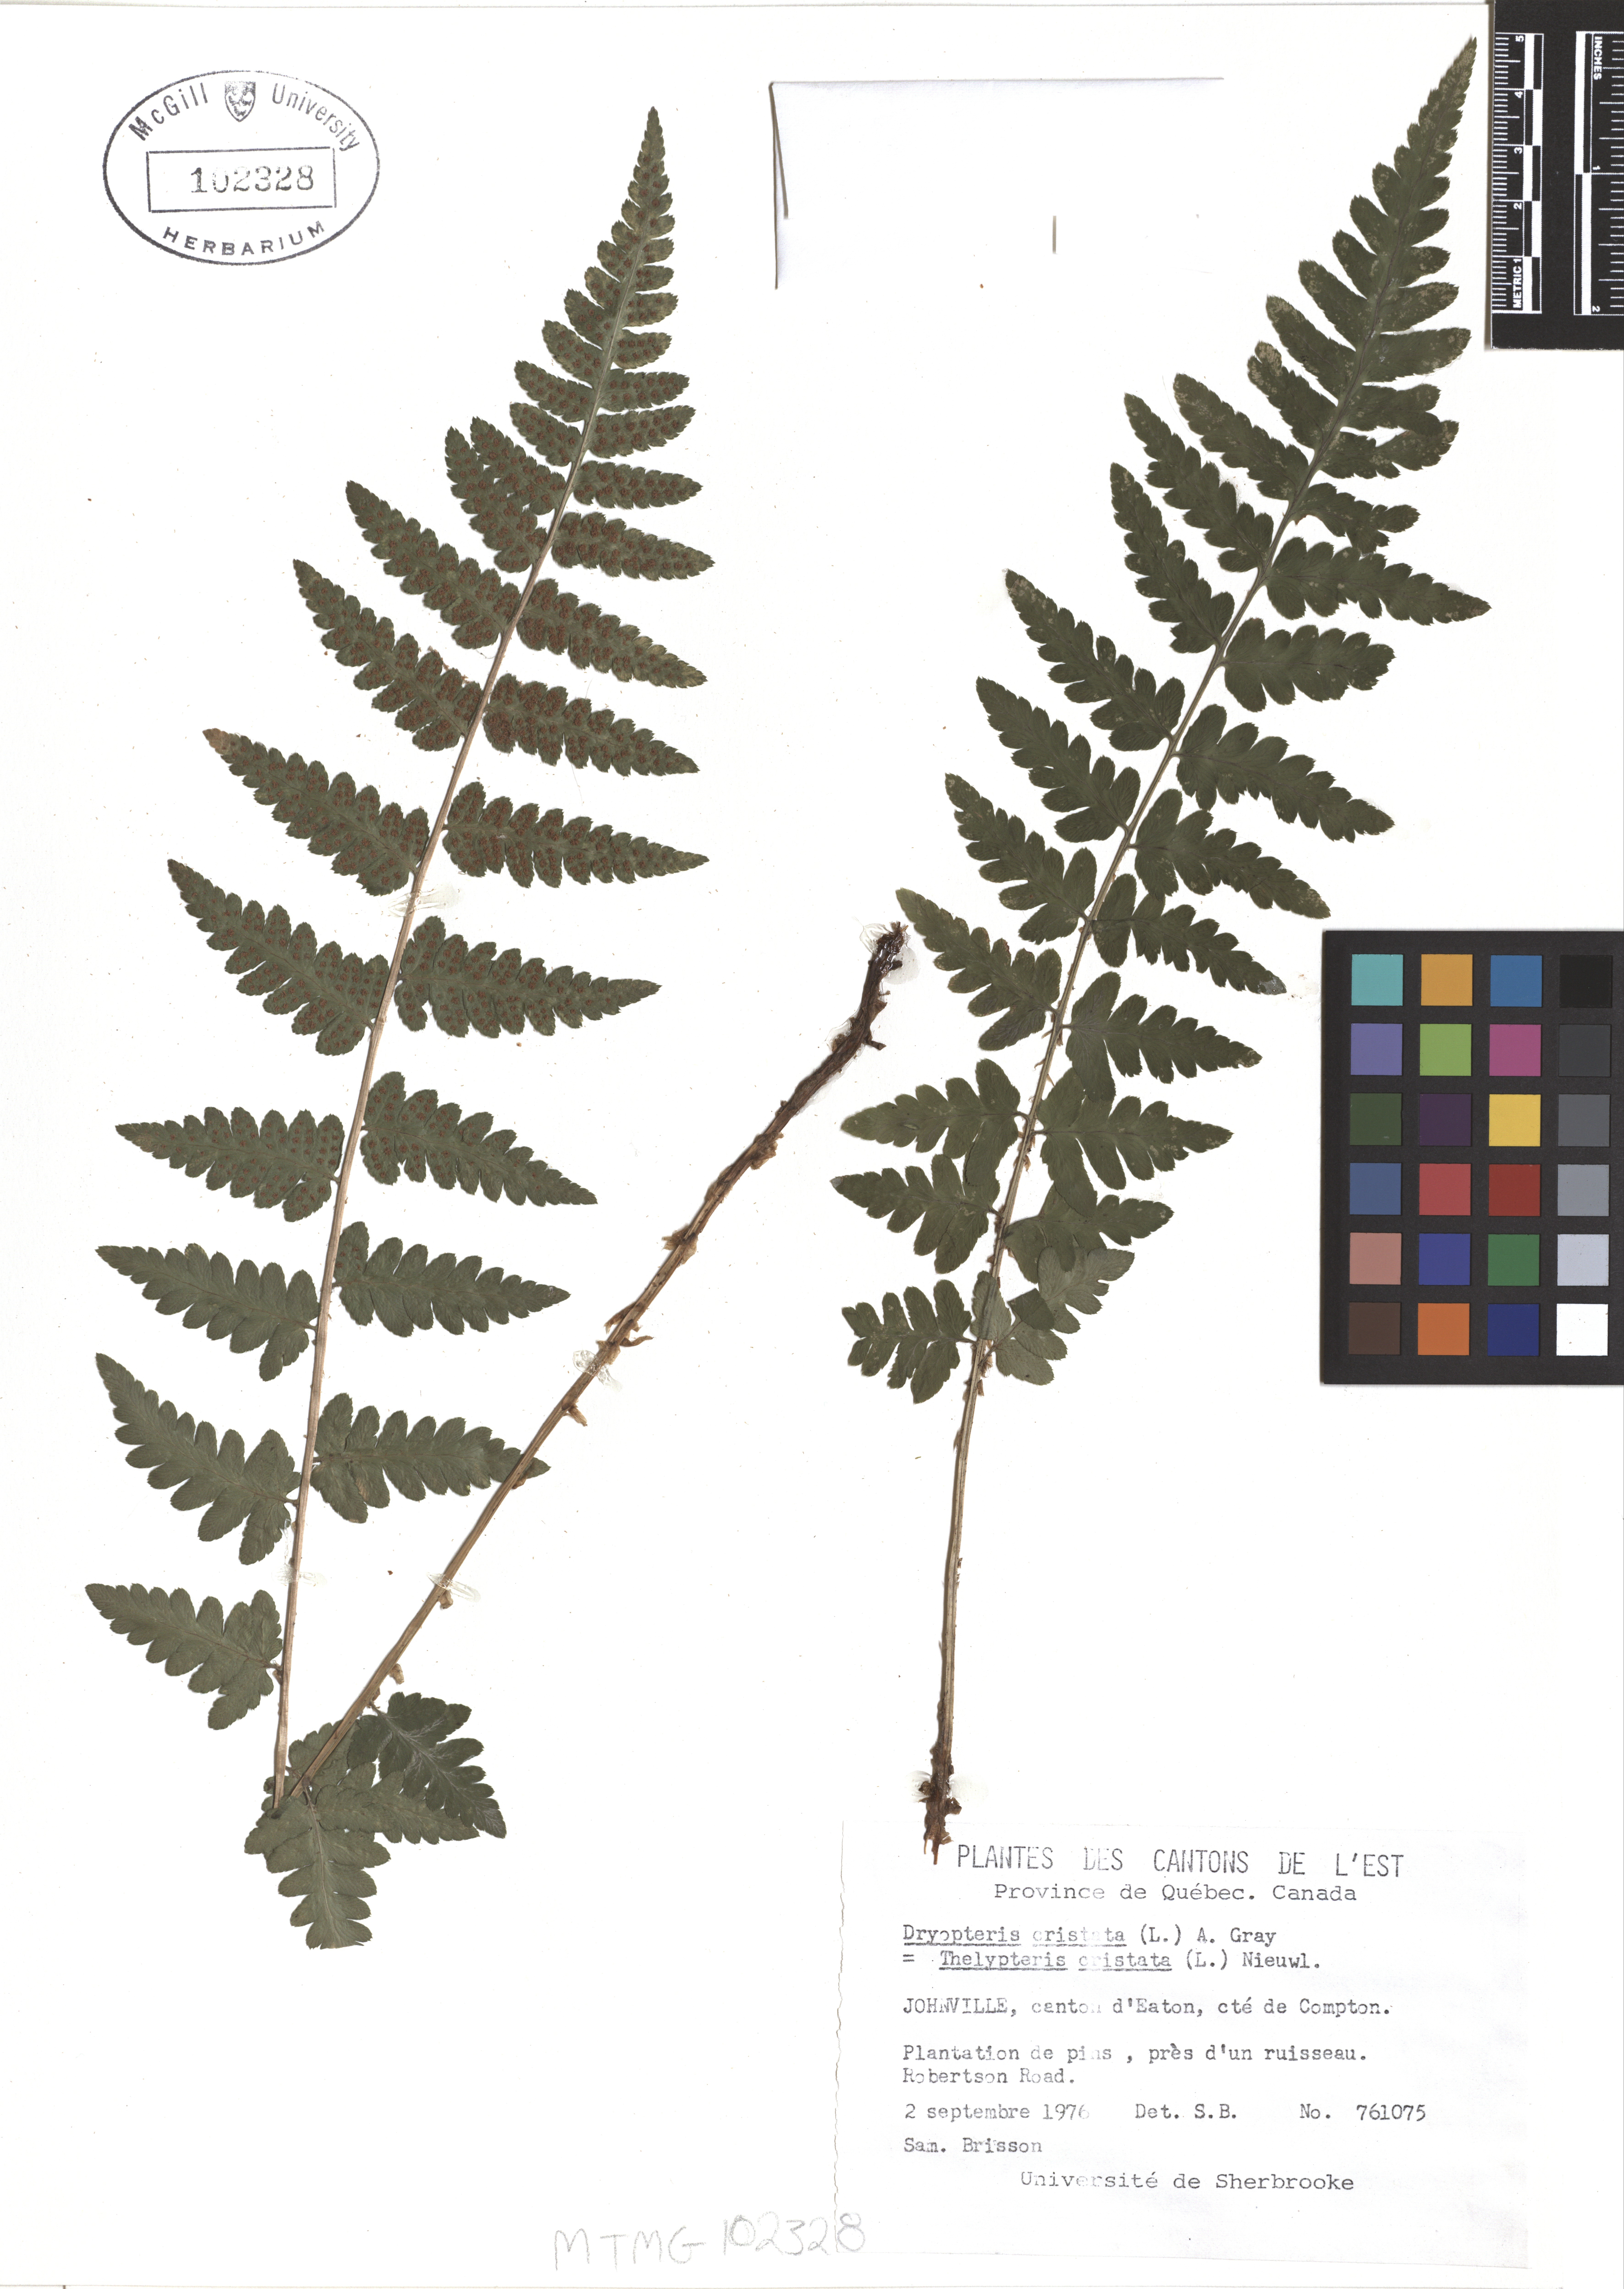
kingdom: Plantae
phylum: Tracheophyta
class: Polypodiopsida
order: Polypodiales
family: Dryopteridaceae
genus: Dryopteris
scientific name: Dryopteris cristata
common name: Crested wood fern
